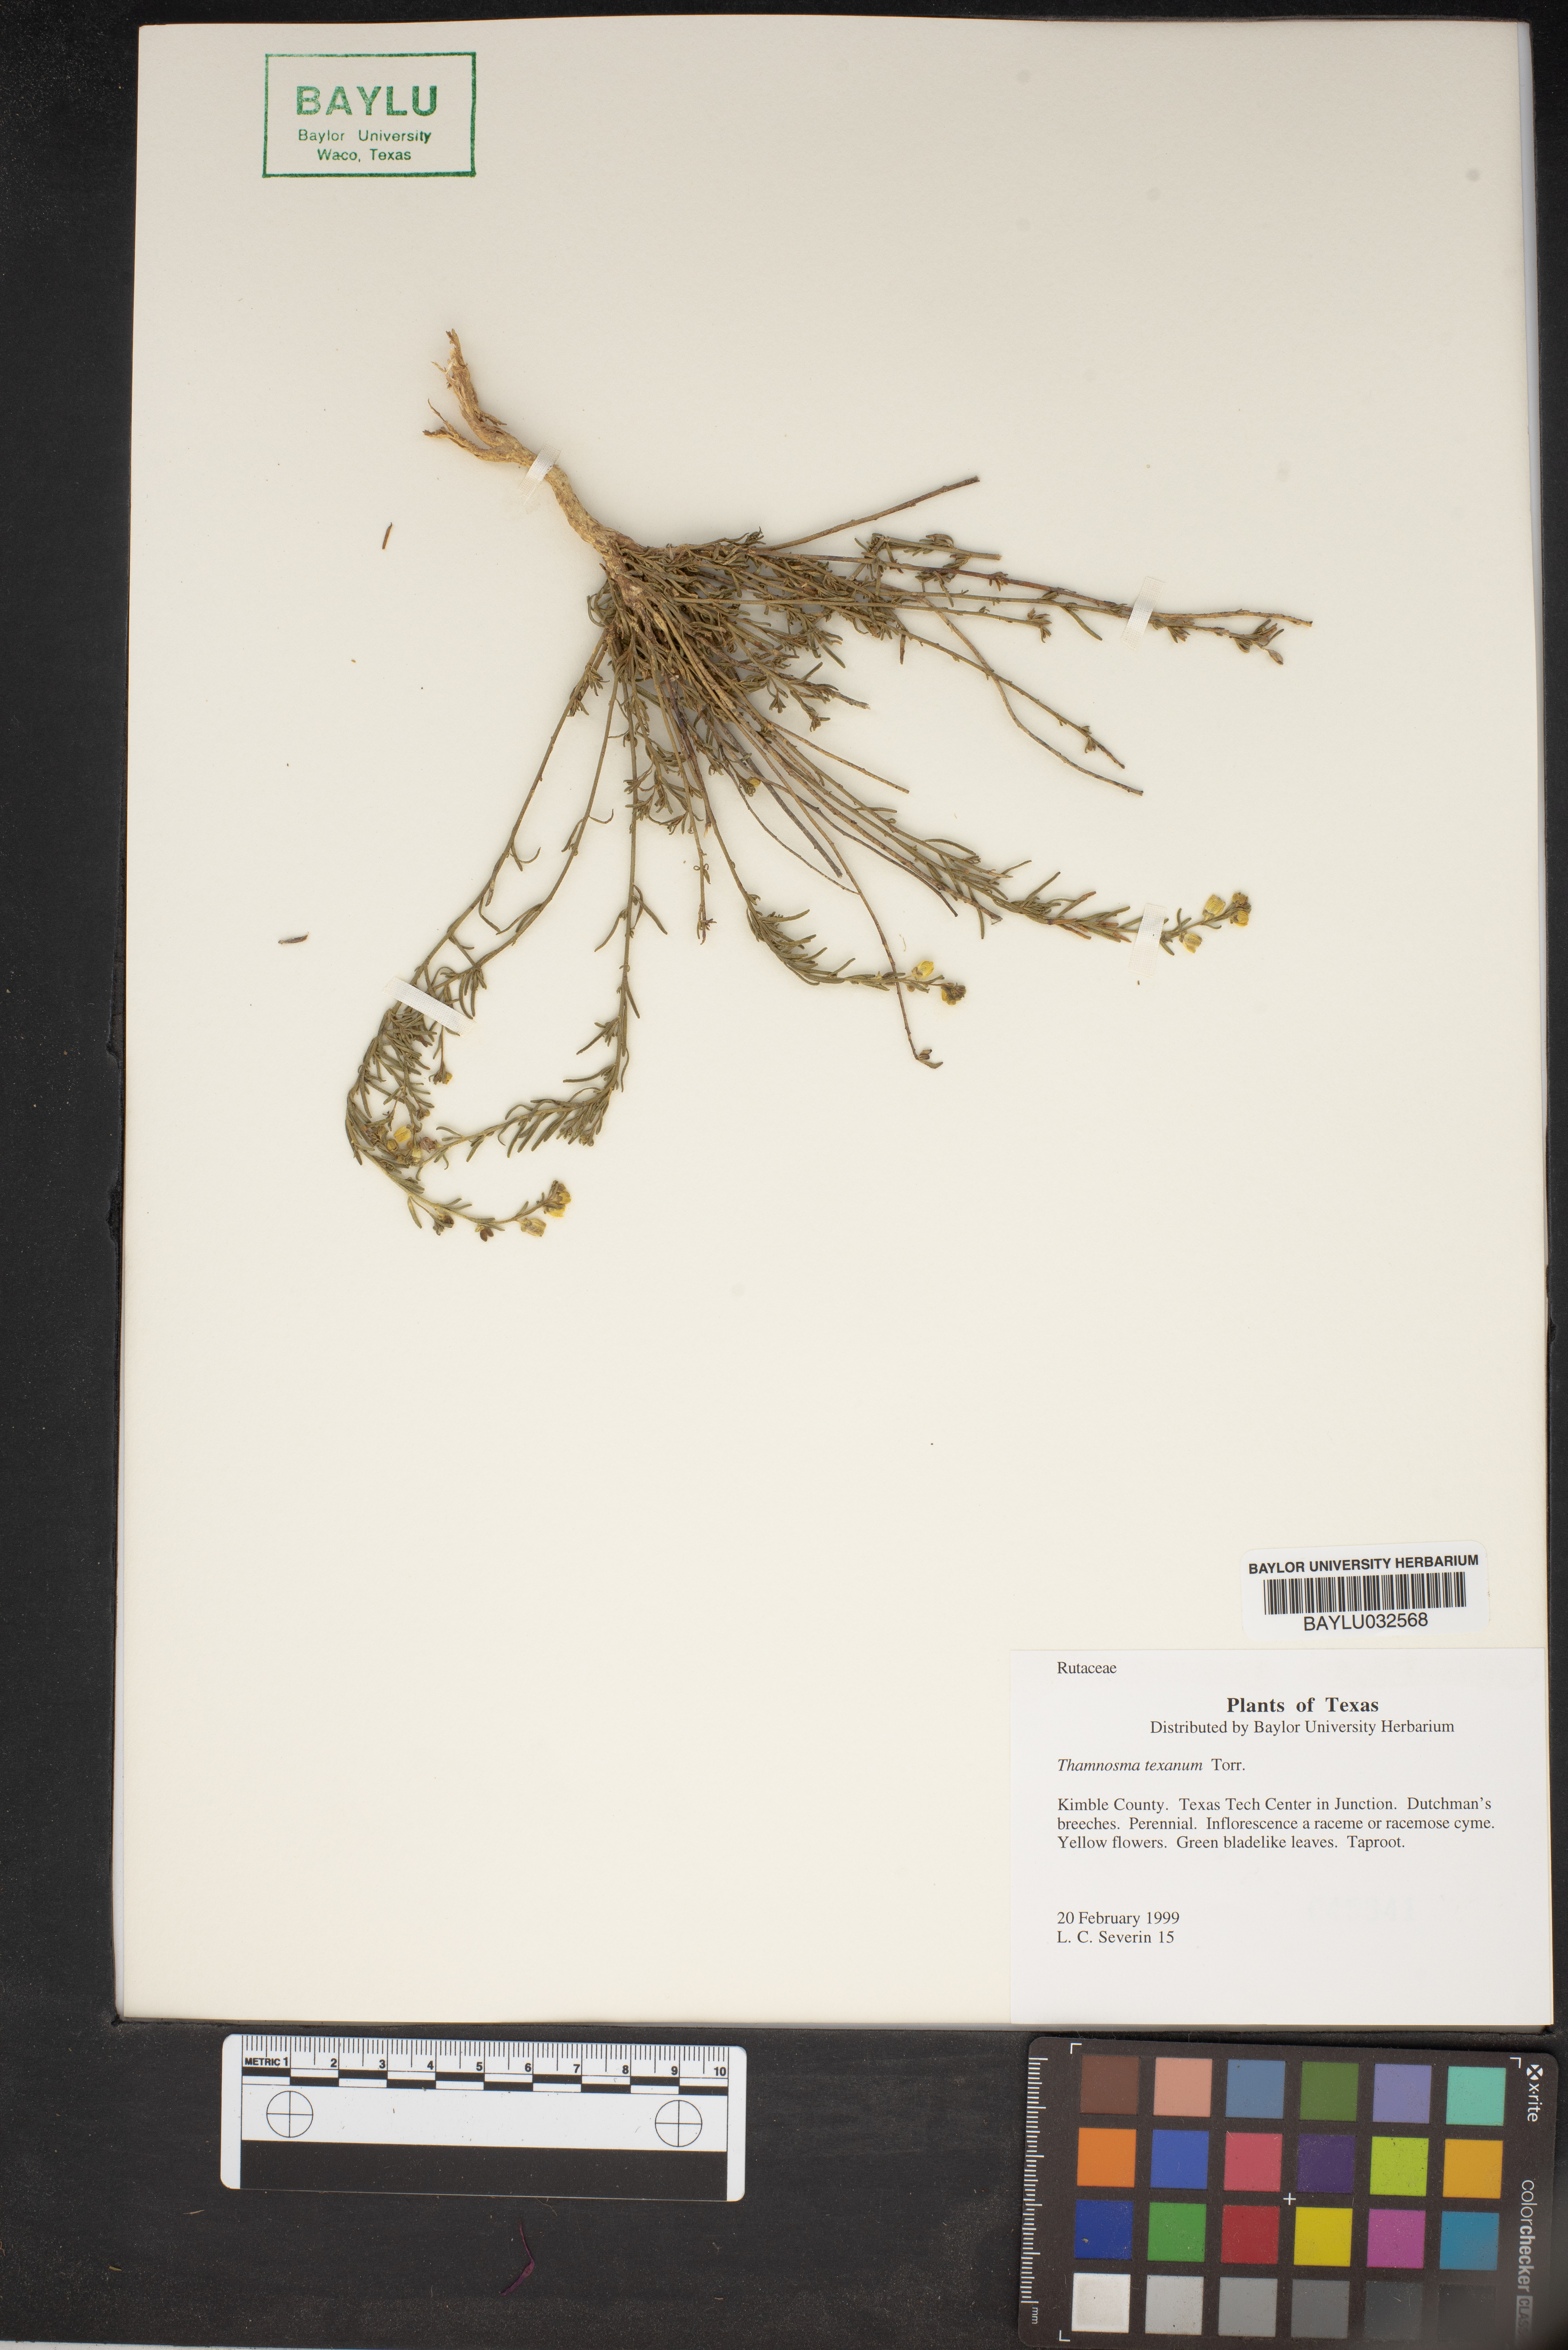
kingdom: Plantae
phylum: Tracheophyta
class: Magnoliopsida
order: Sapindales
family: Rutaceae
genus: Thamnosma
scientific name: Thamnosma texana
